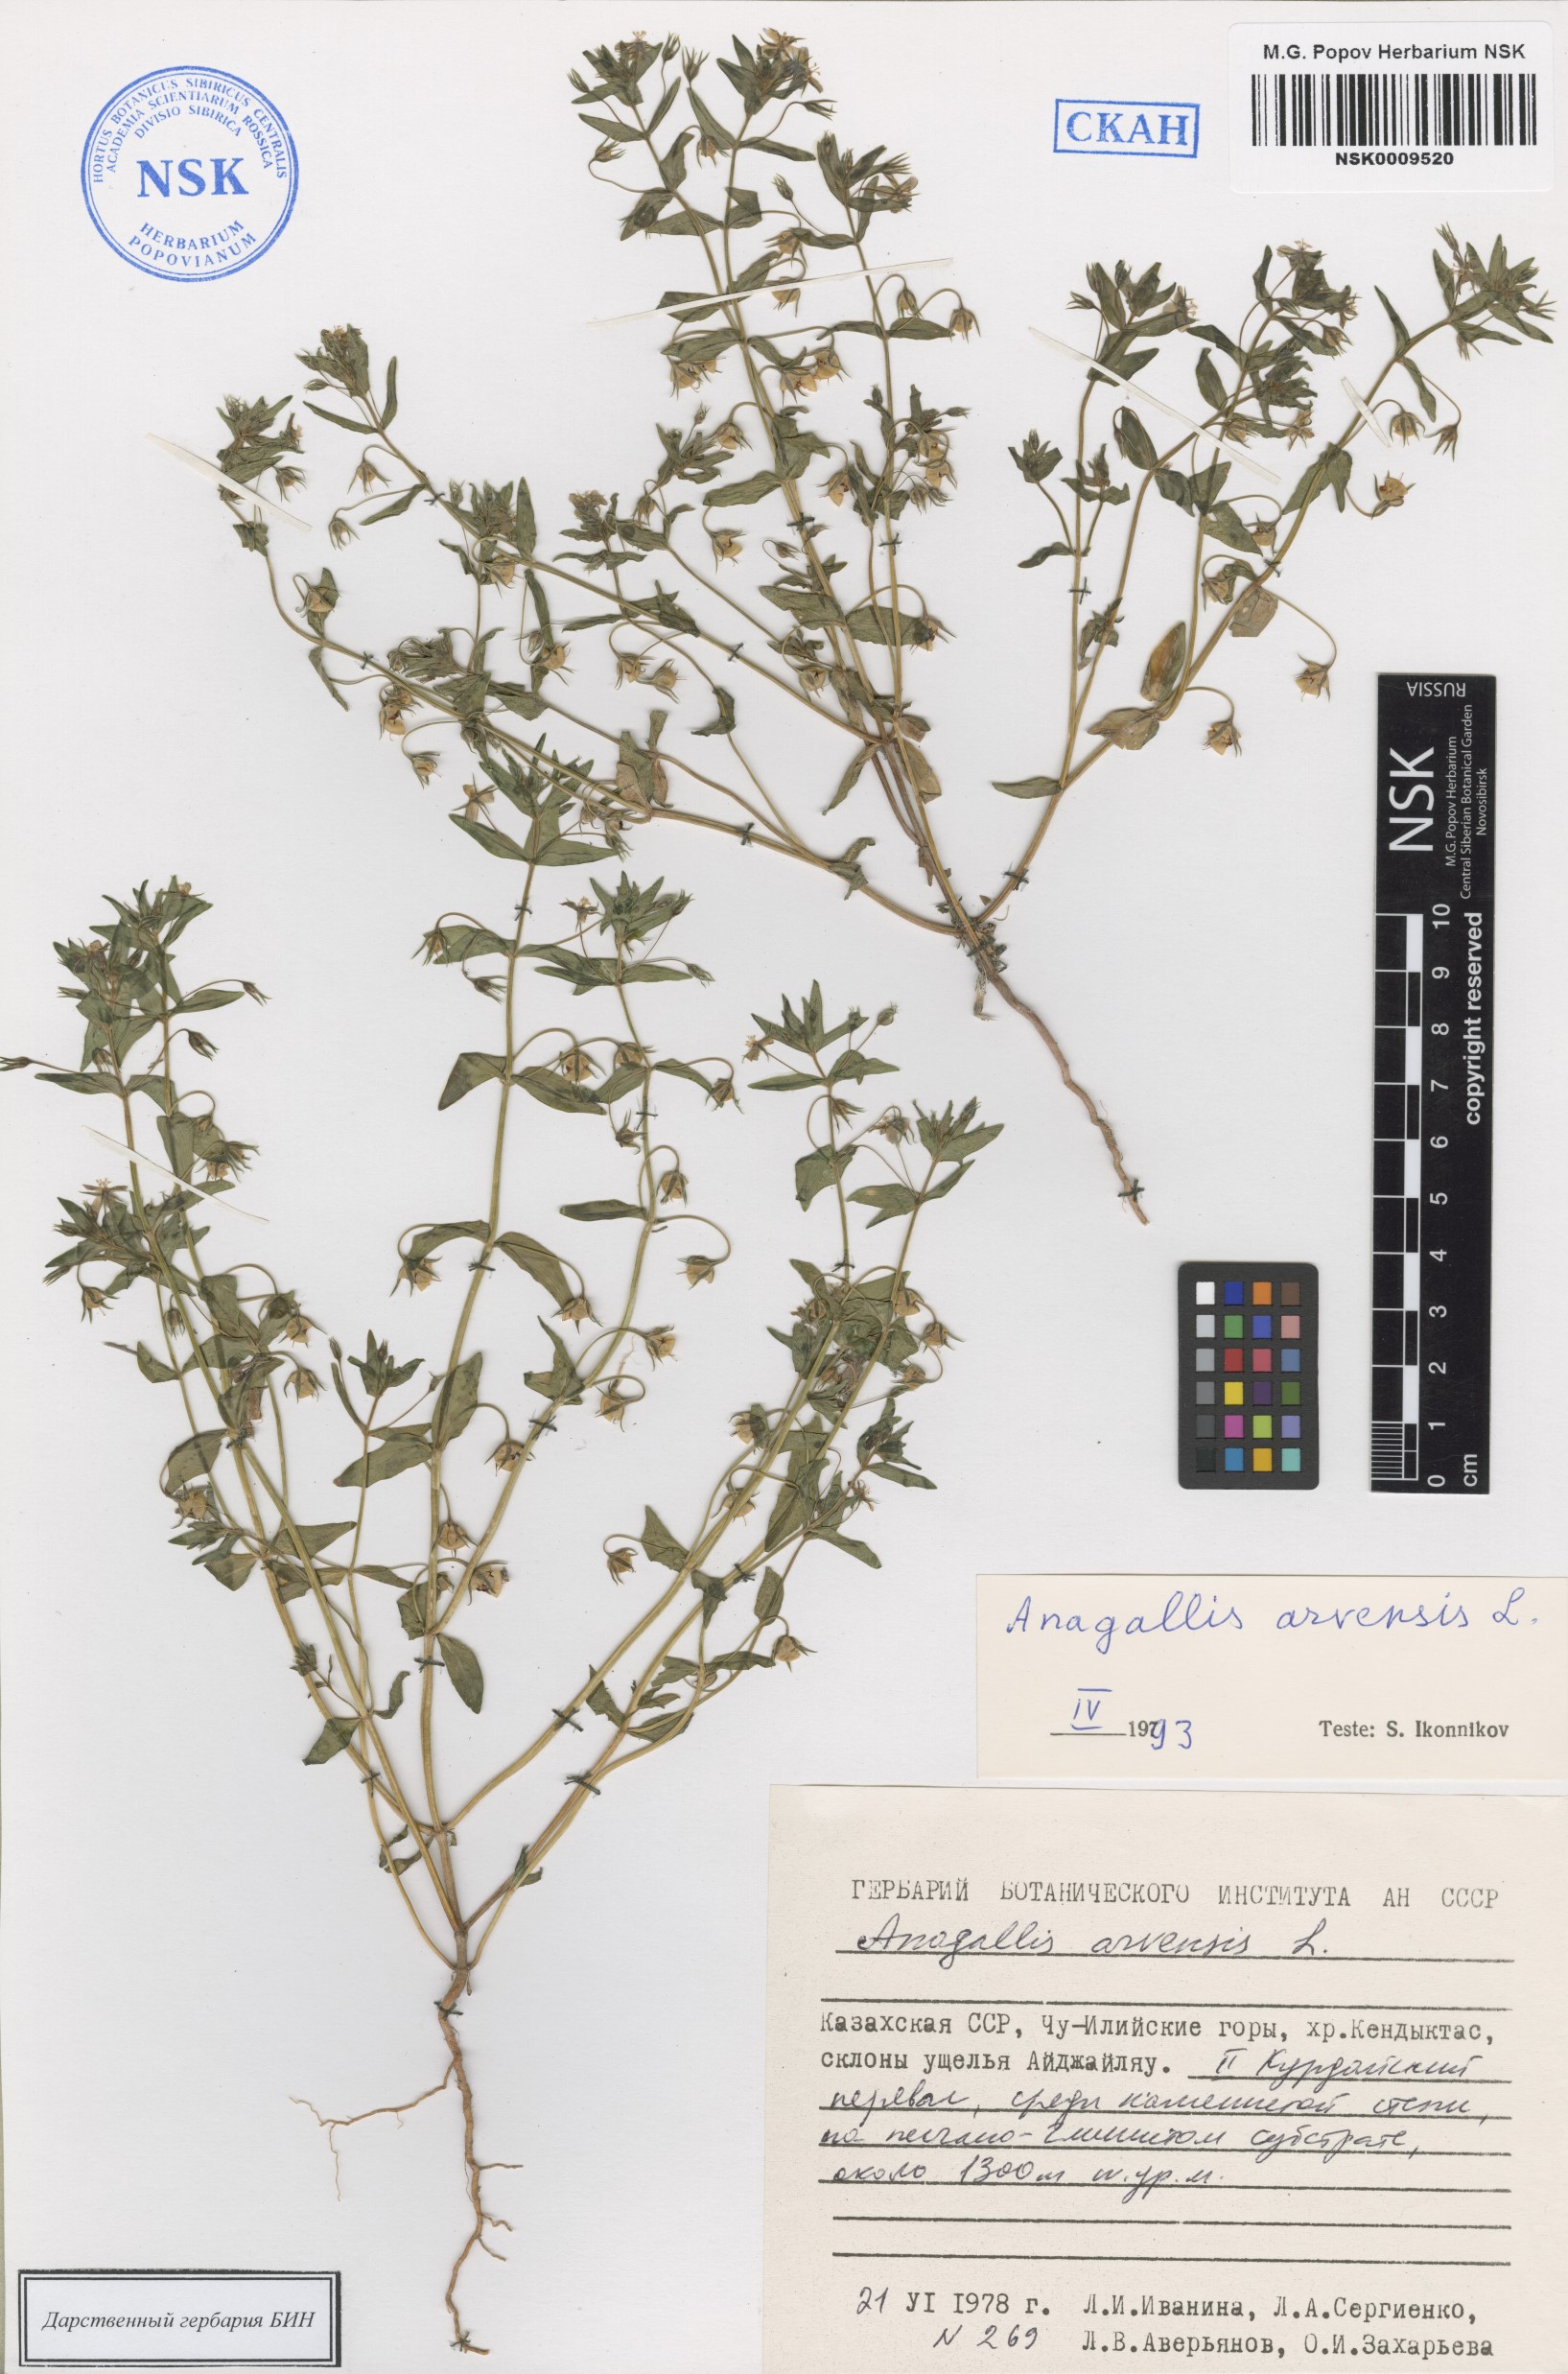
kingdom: Plantae
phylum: Tracheophyta
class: Magnoliopsida
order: Ericales
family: Primulaceae
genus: Lysimachia
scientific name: Lysimachia arvensis
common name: Scarlet pimpernel
